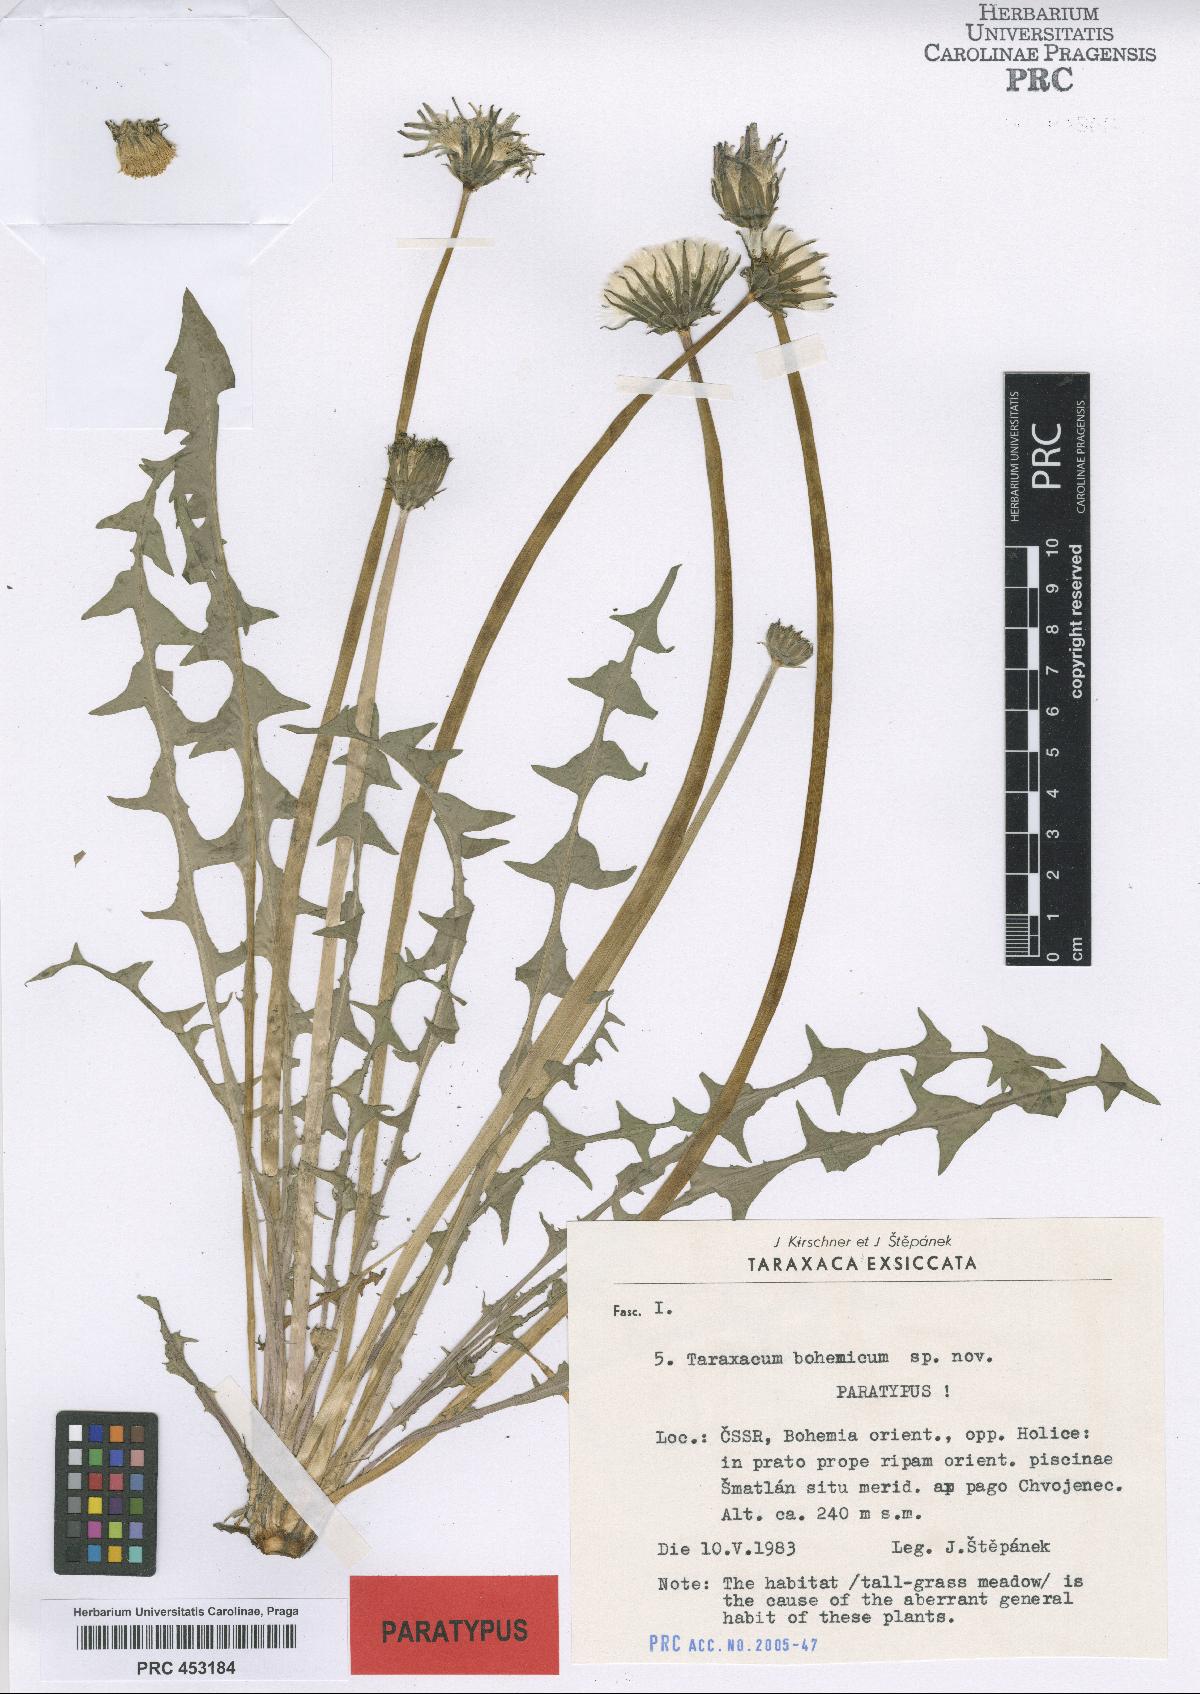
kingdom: Plantae
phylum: Tracheophyta
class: Magnoliopsida
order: Asterales
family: Asteraceae
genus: Taraxacum
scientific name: Taraxacum bohemicum
